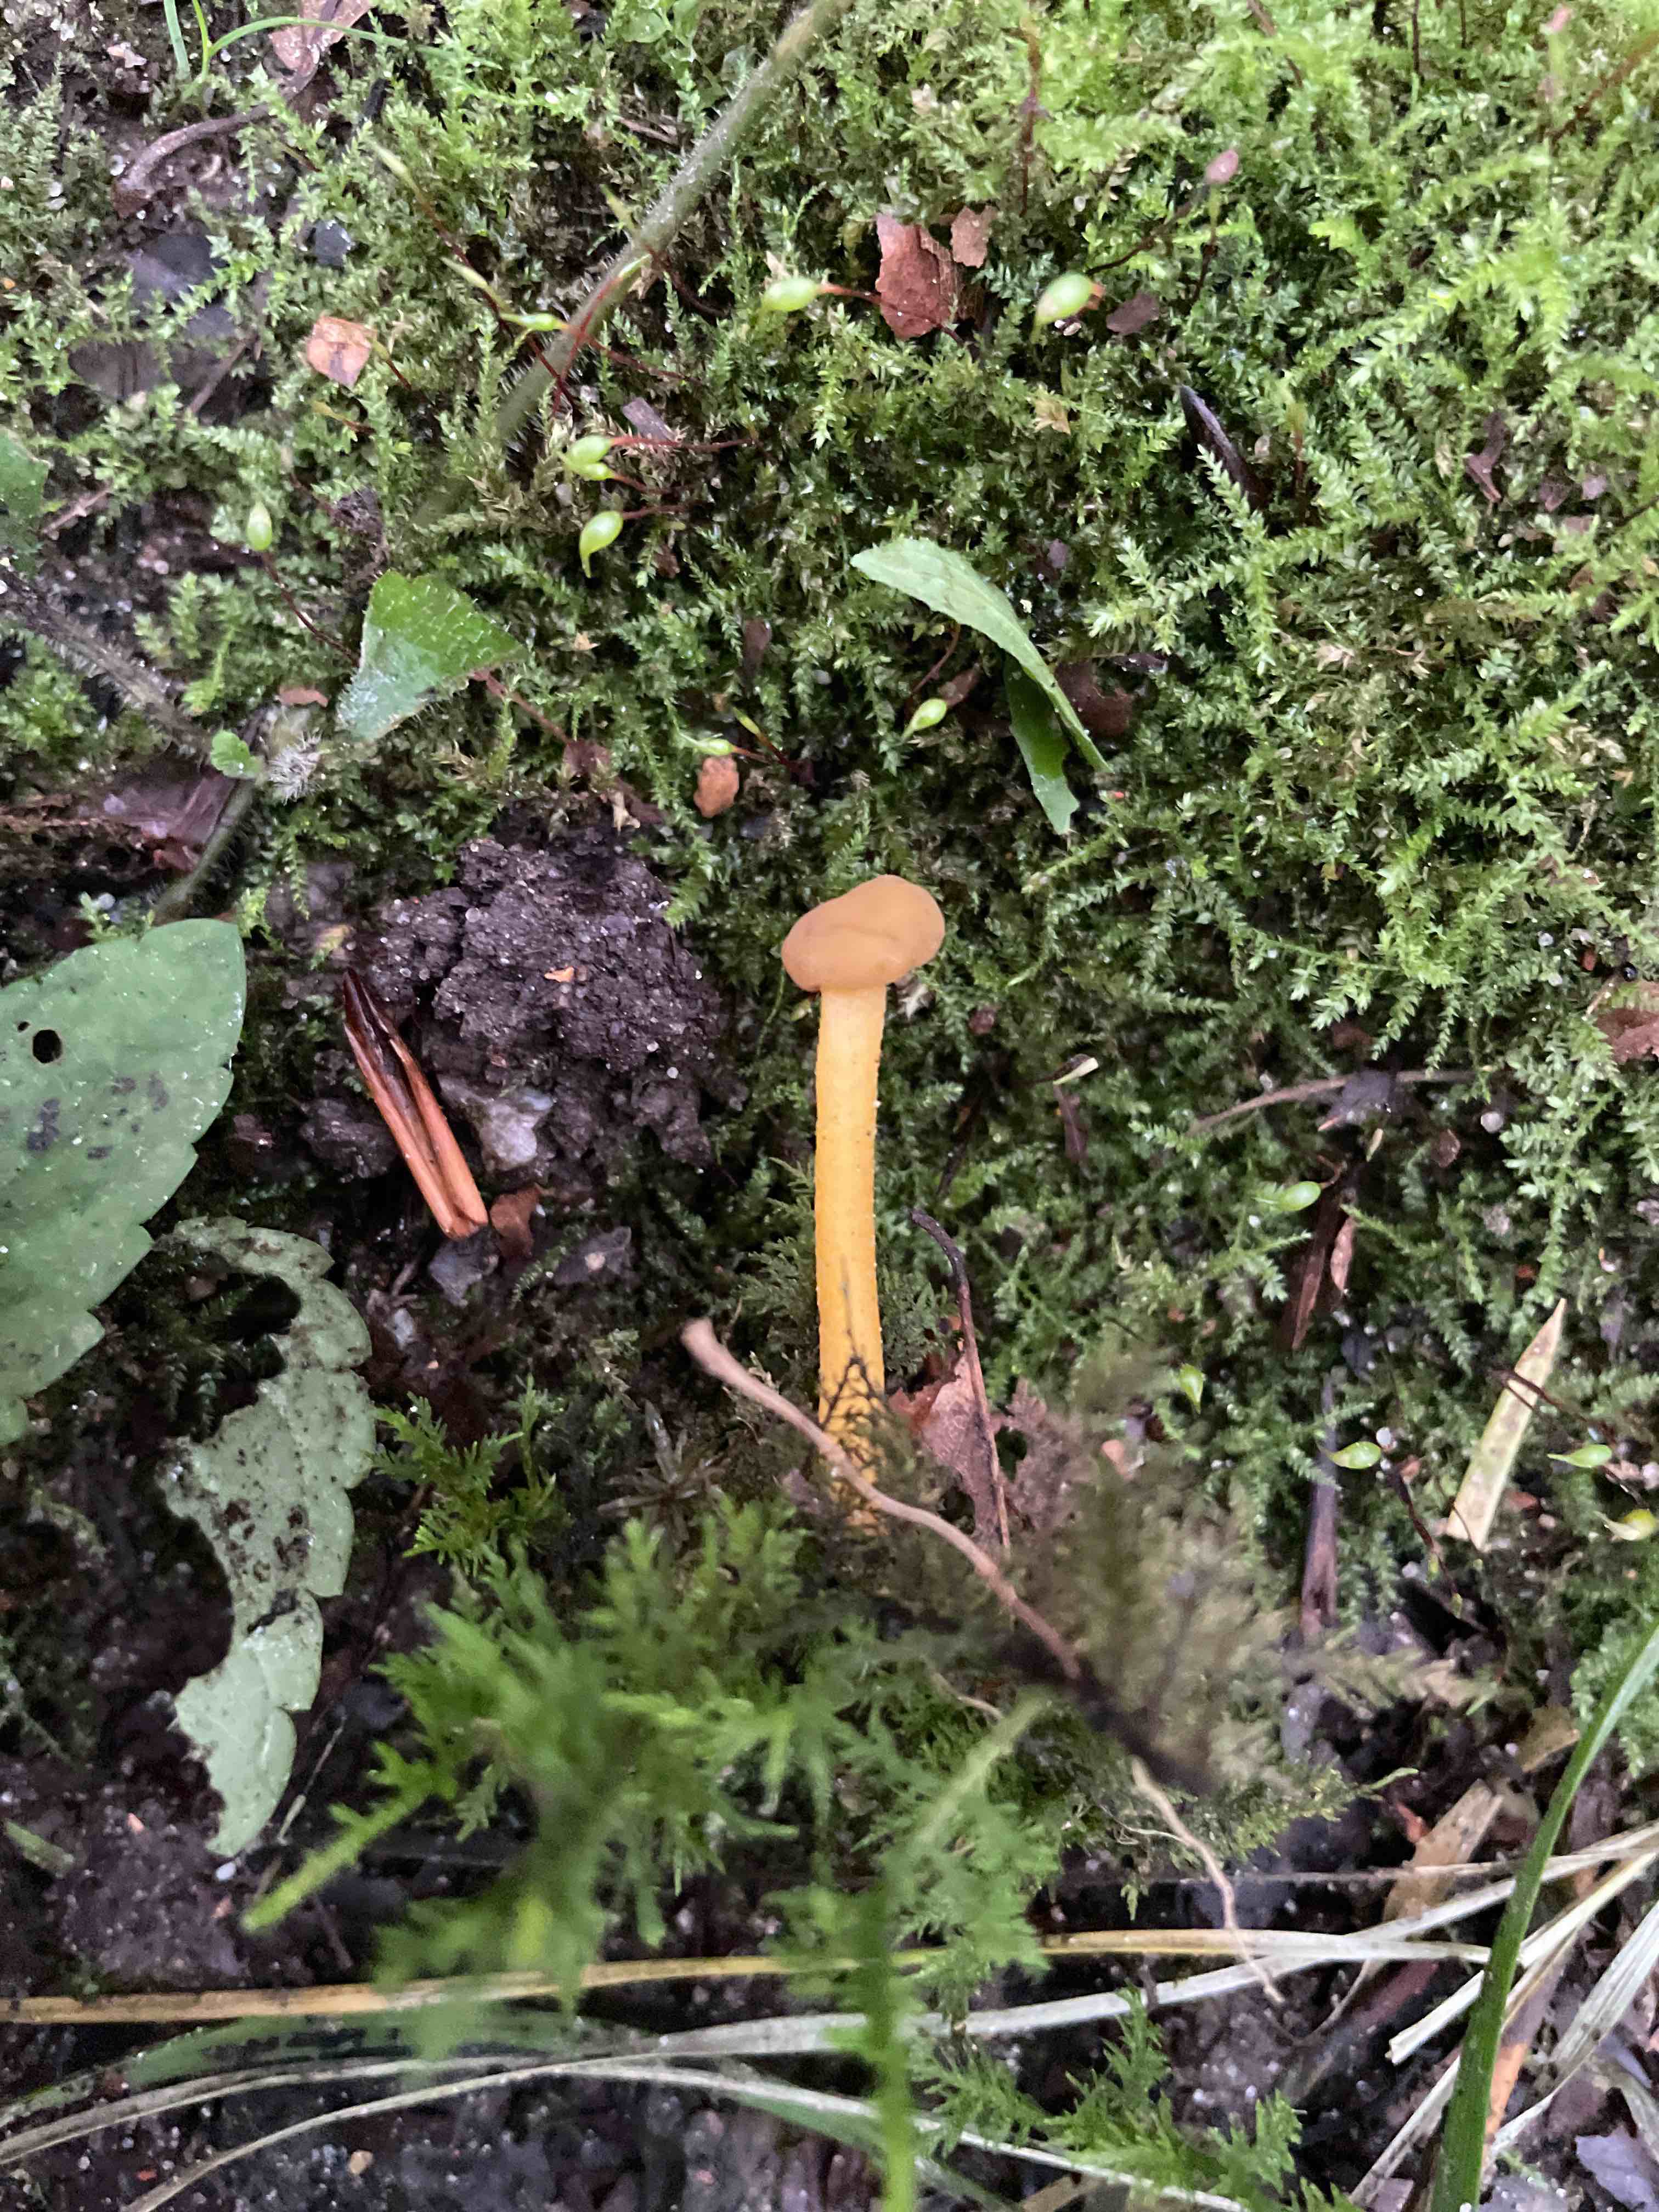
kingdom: Fungi
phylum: Ascomycota
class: Leotiomycetes
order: Leotiales
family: Leotiaceae
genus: Leotia
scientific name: Leotia lubrica
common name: ravsvamp
